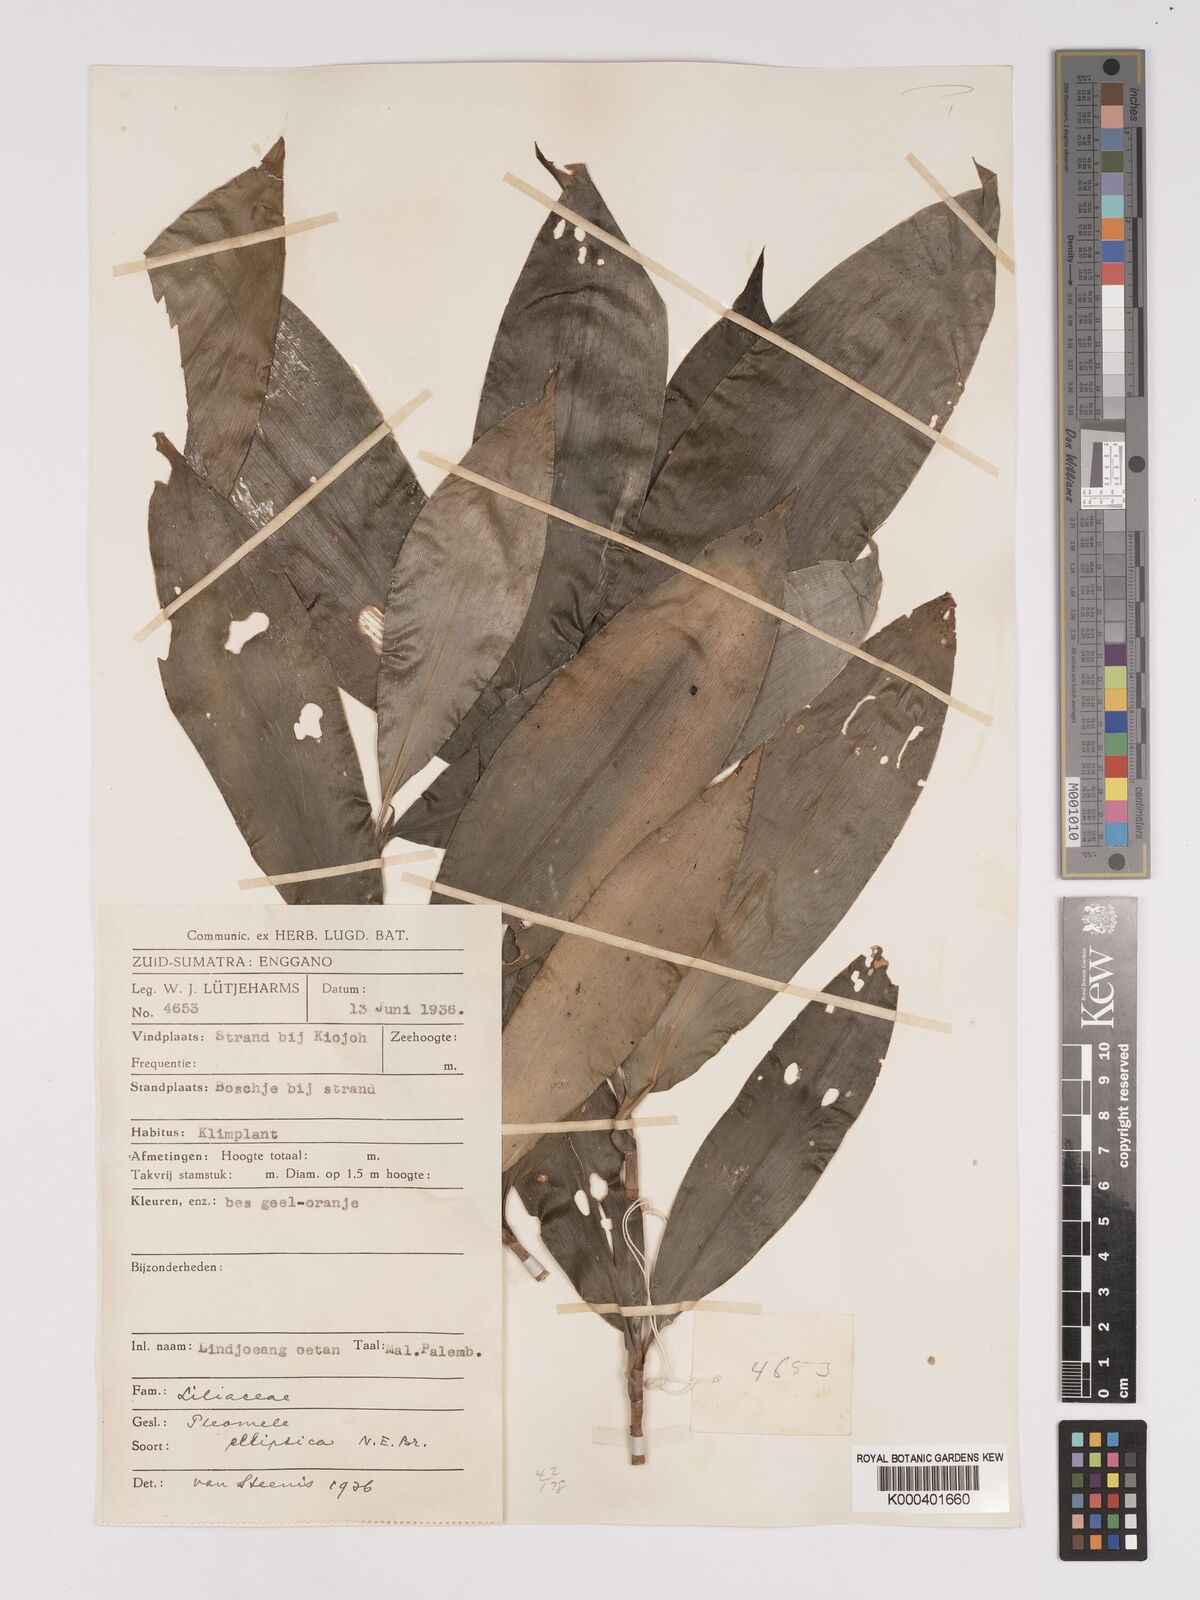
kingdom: Plantae
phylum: Tracheophyta
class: Liliopsida
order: Asparagales
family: Asparagaceae
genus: Dracaena
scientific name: Dracaena elliptica
